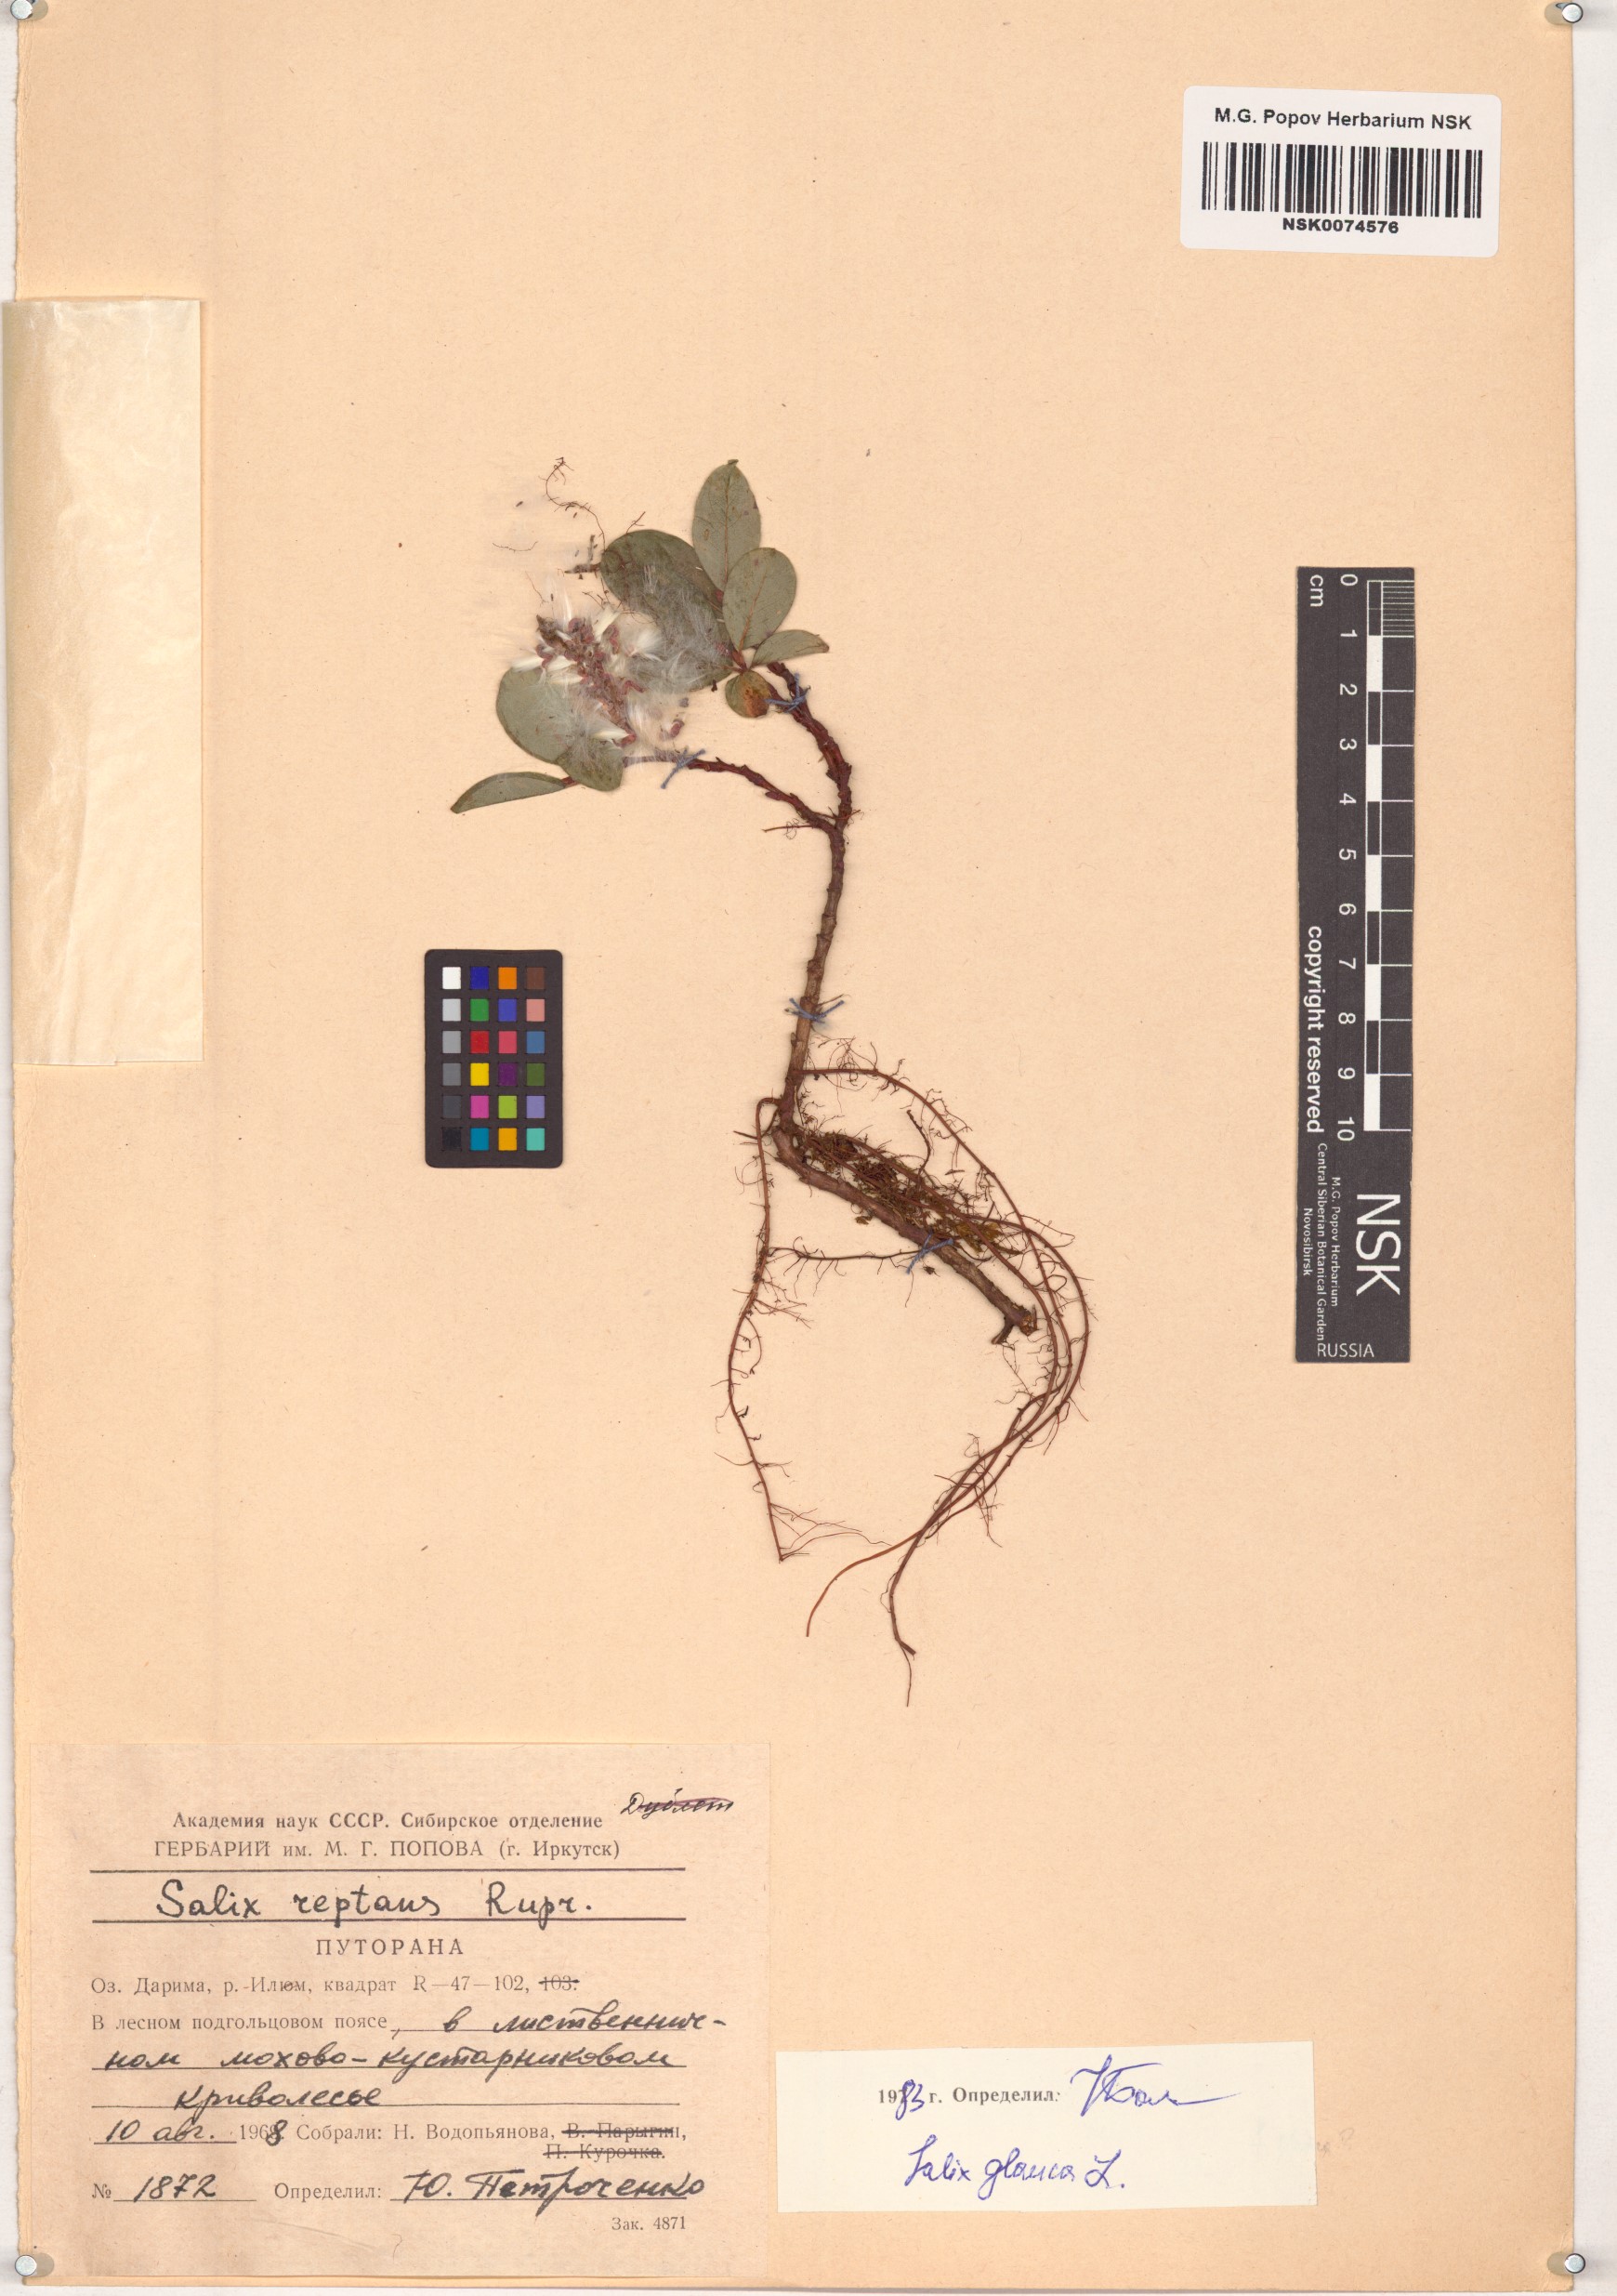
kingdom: Plantae
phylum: Tracheophyta
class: Magnoliopsida
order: Malpighiales
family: Salicaceae
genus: Salix
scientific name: Salix glauca
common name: Glaucous willow
